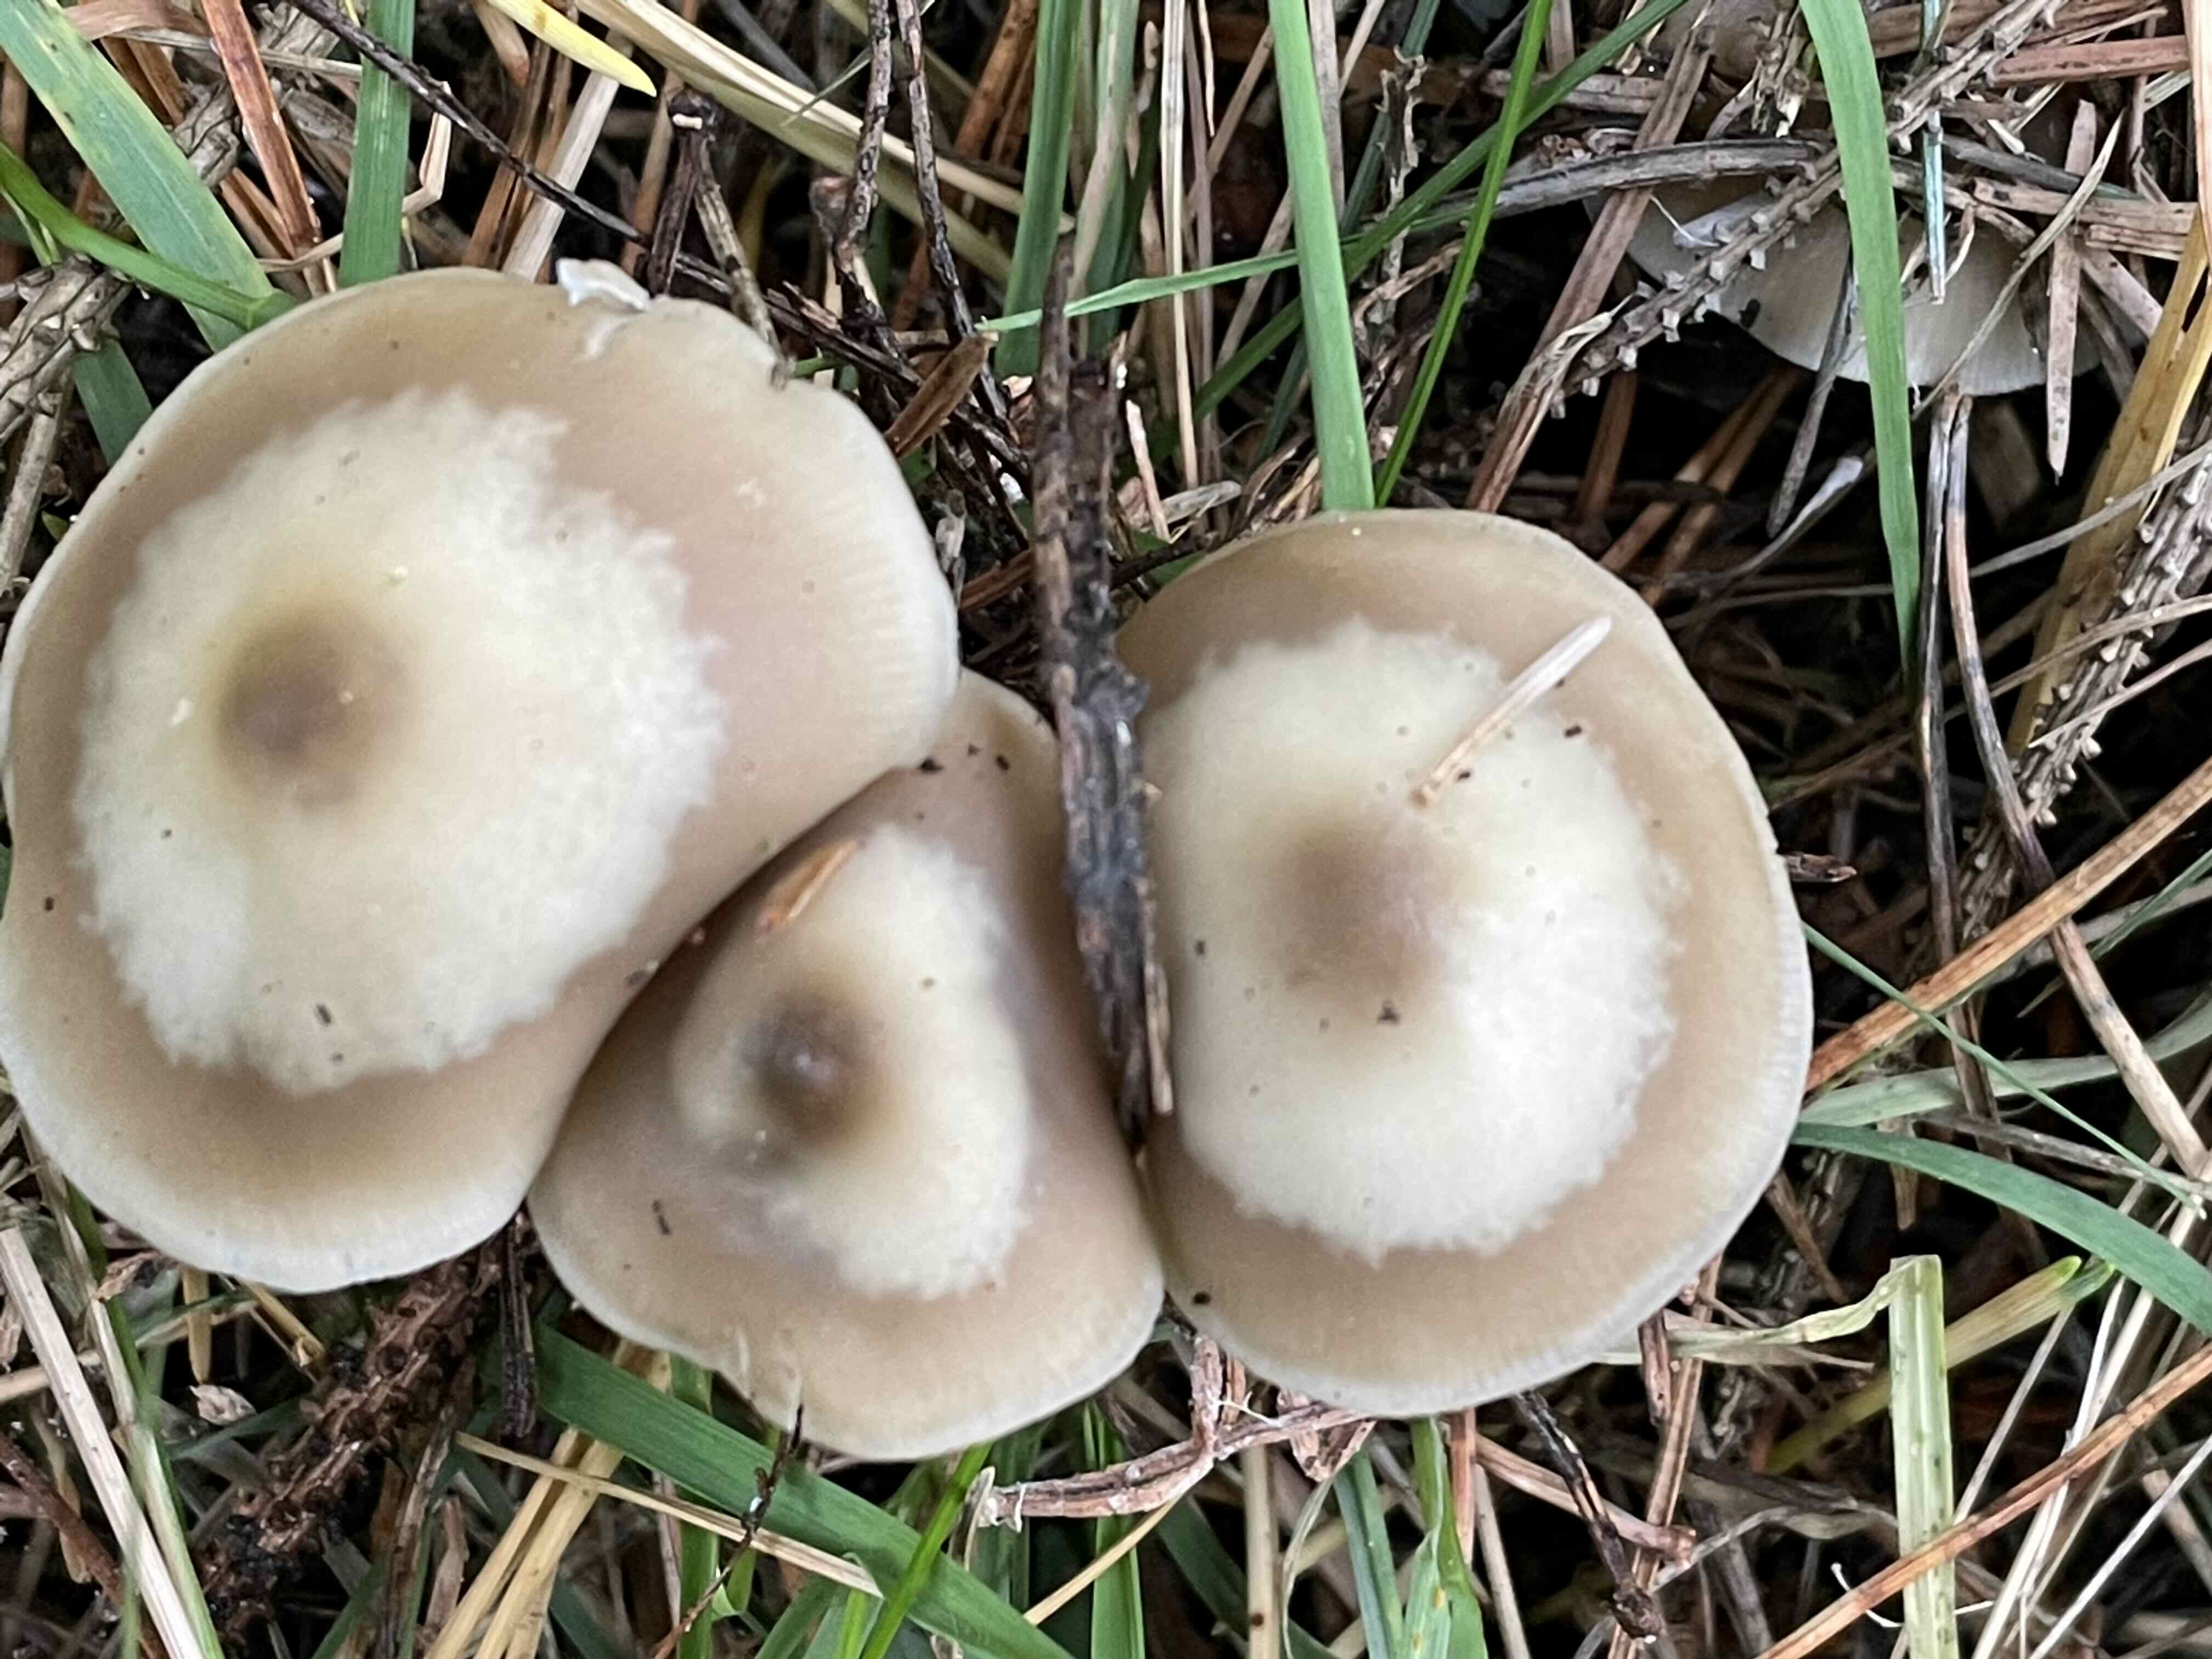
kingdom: Fungi
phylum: Basidiomycota
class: Agaricomycetes
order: Agaricales
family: Omphalotaceae
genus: Rhodocollybia
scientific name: Rhodocollybia asema
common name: horngrå fladhat
